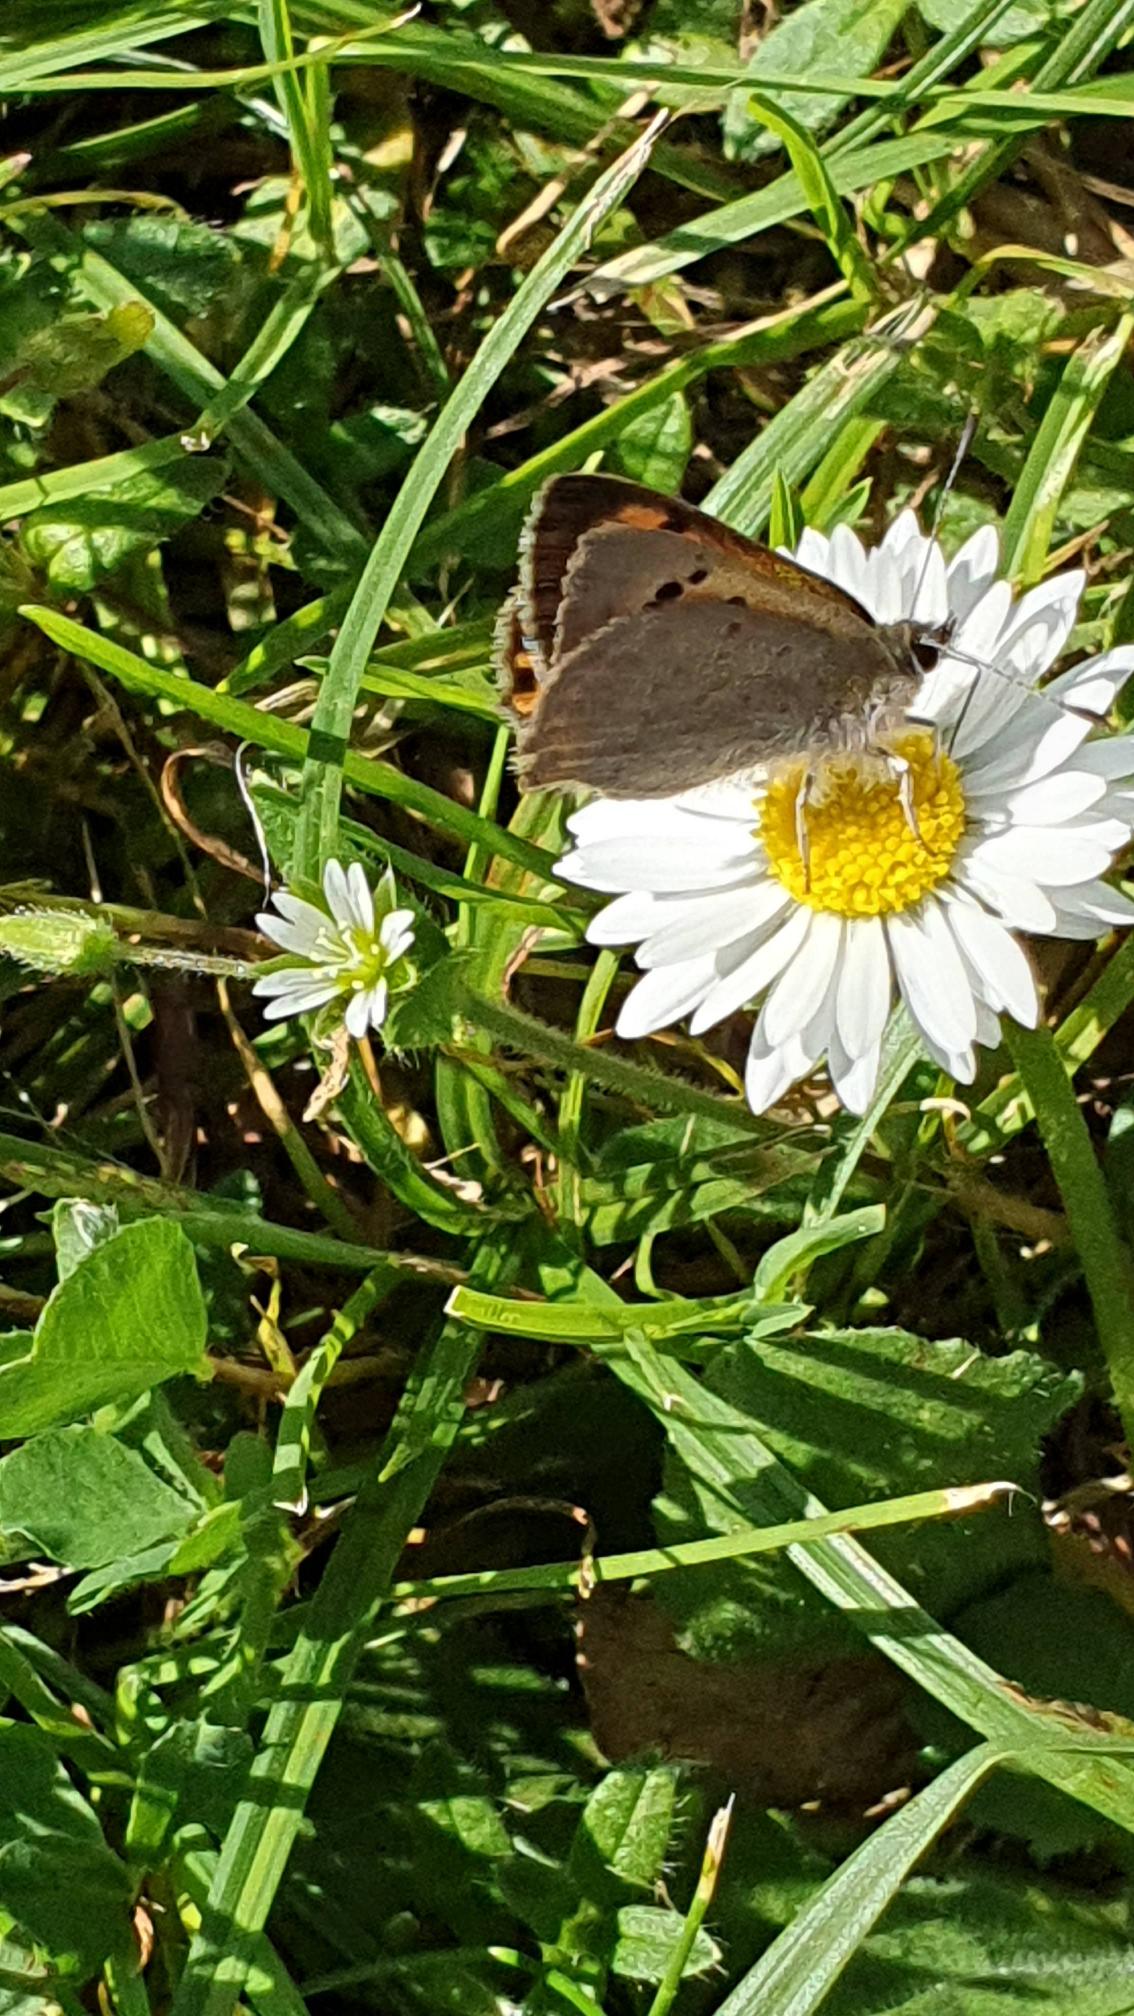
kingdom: Animalia
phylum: Arthropoda
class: Insecta
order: Lepidoptera
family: Lycaenidae
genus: Lycaena
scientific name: Lycaena phlaeas
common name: Lille ildfugl
